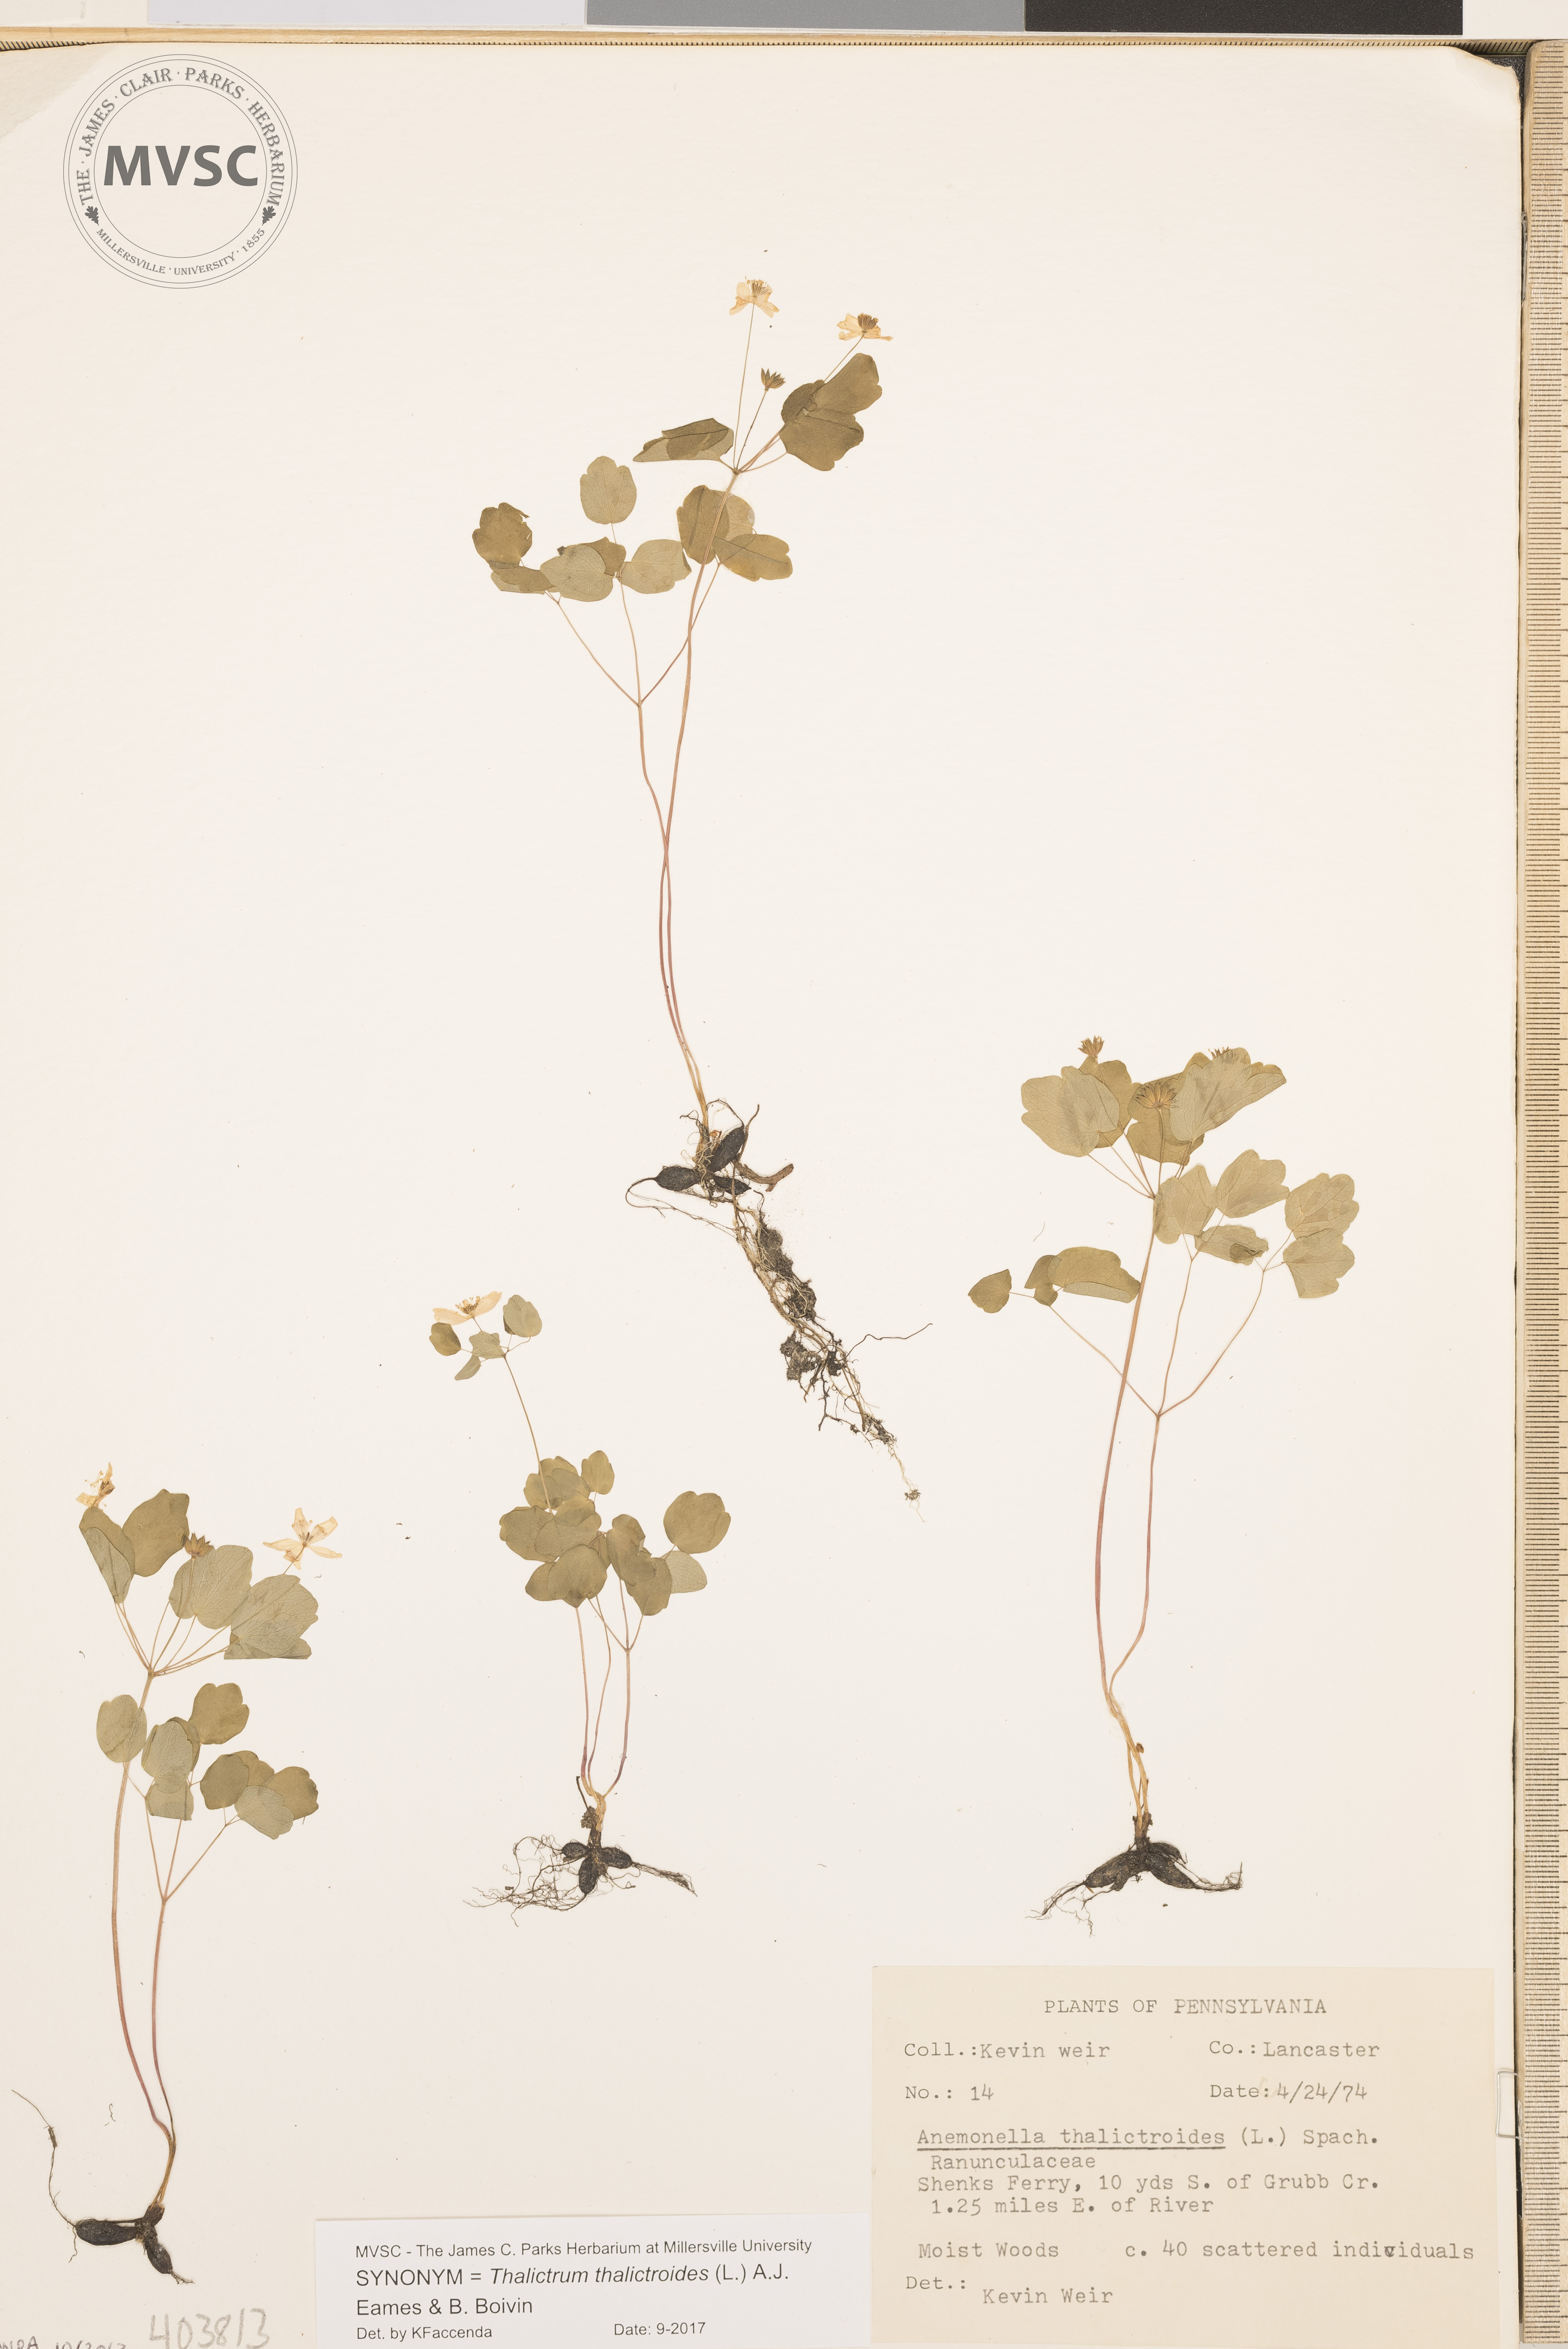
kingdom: Plantae
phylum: Tracheophyta
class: Magnoliopsida
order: Ranunculales
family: Ranunculaceae
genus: Thalictrum
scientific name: Thalictrum thalictroides
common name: Rue anemone
